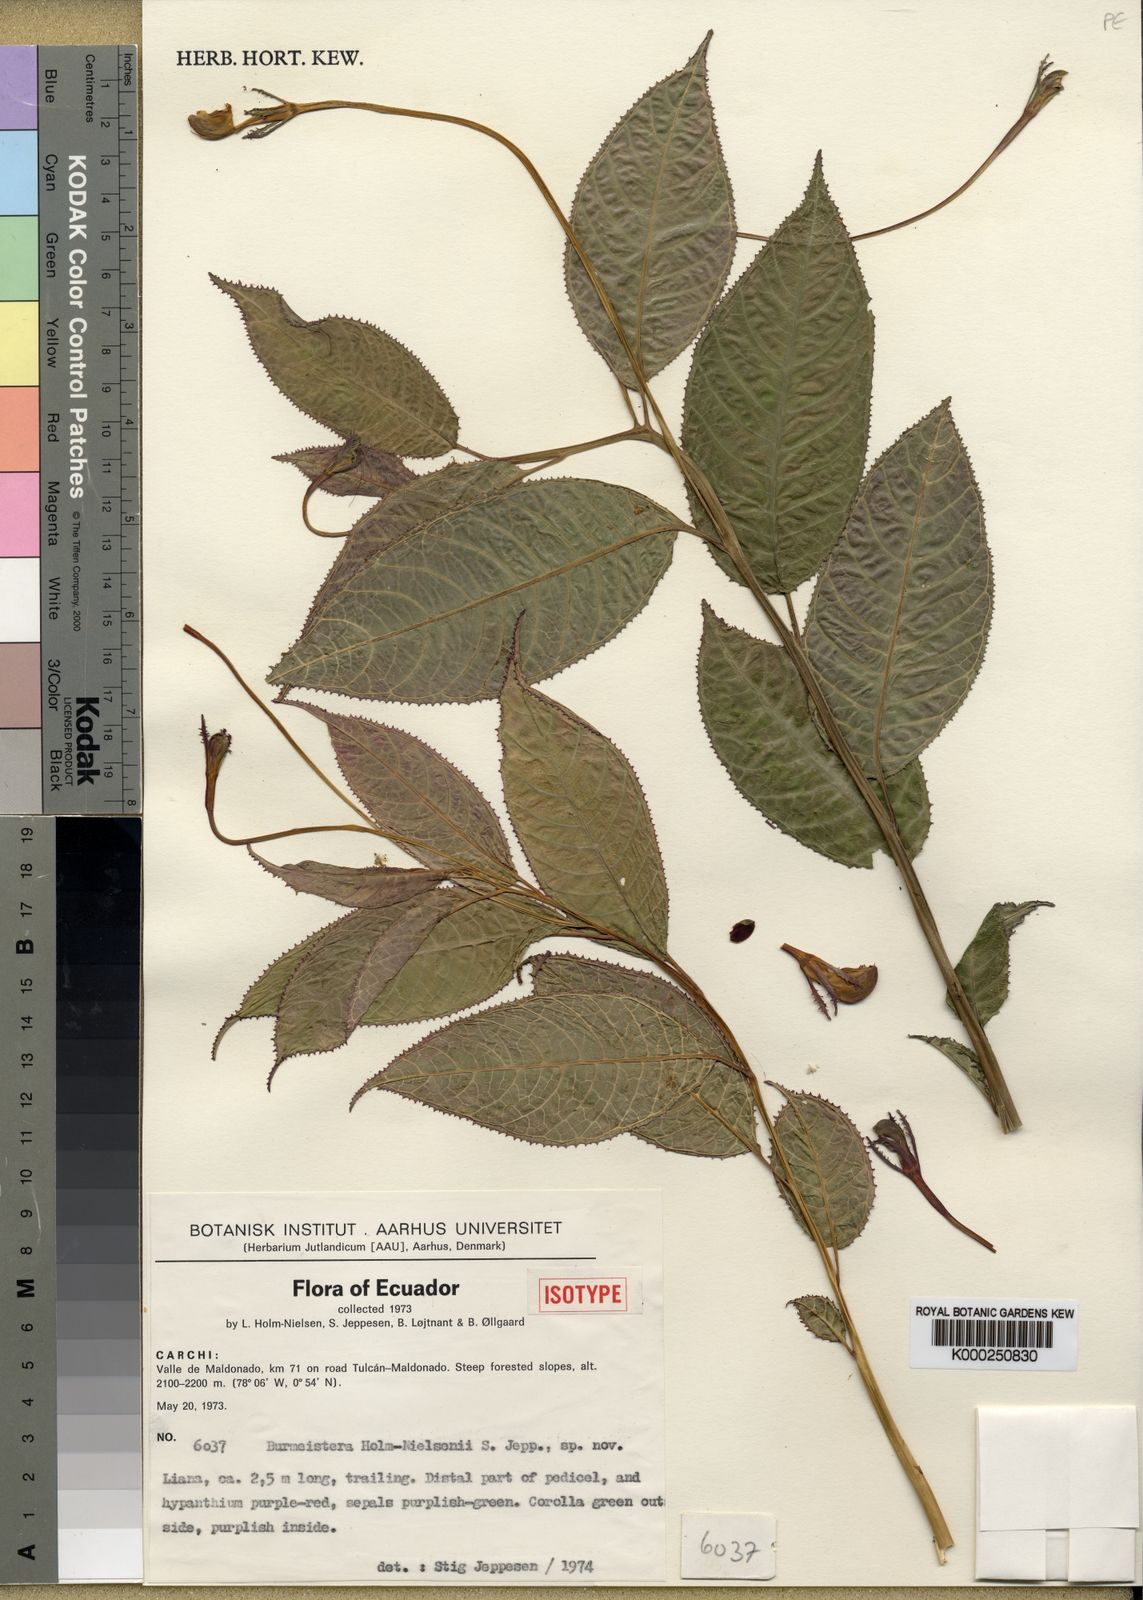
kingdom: Plantae
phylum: Tracheophyta
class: Magnoliopsida
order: Asterales
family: Campanulaceae
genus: Burmeistera
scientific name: Burmeistera holm-nielsenii
